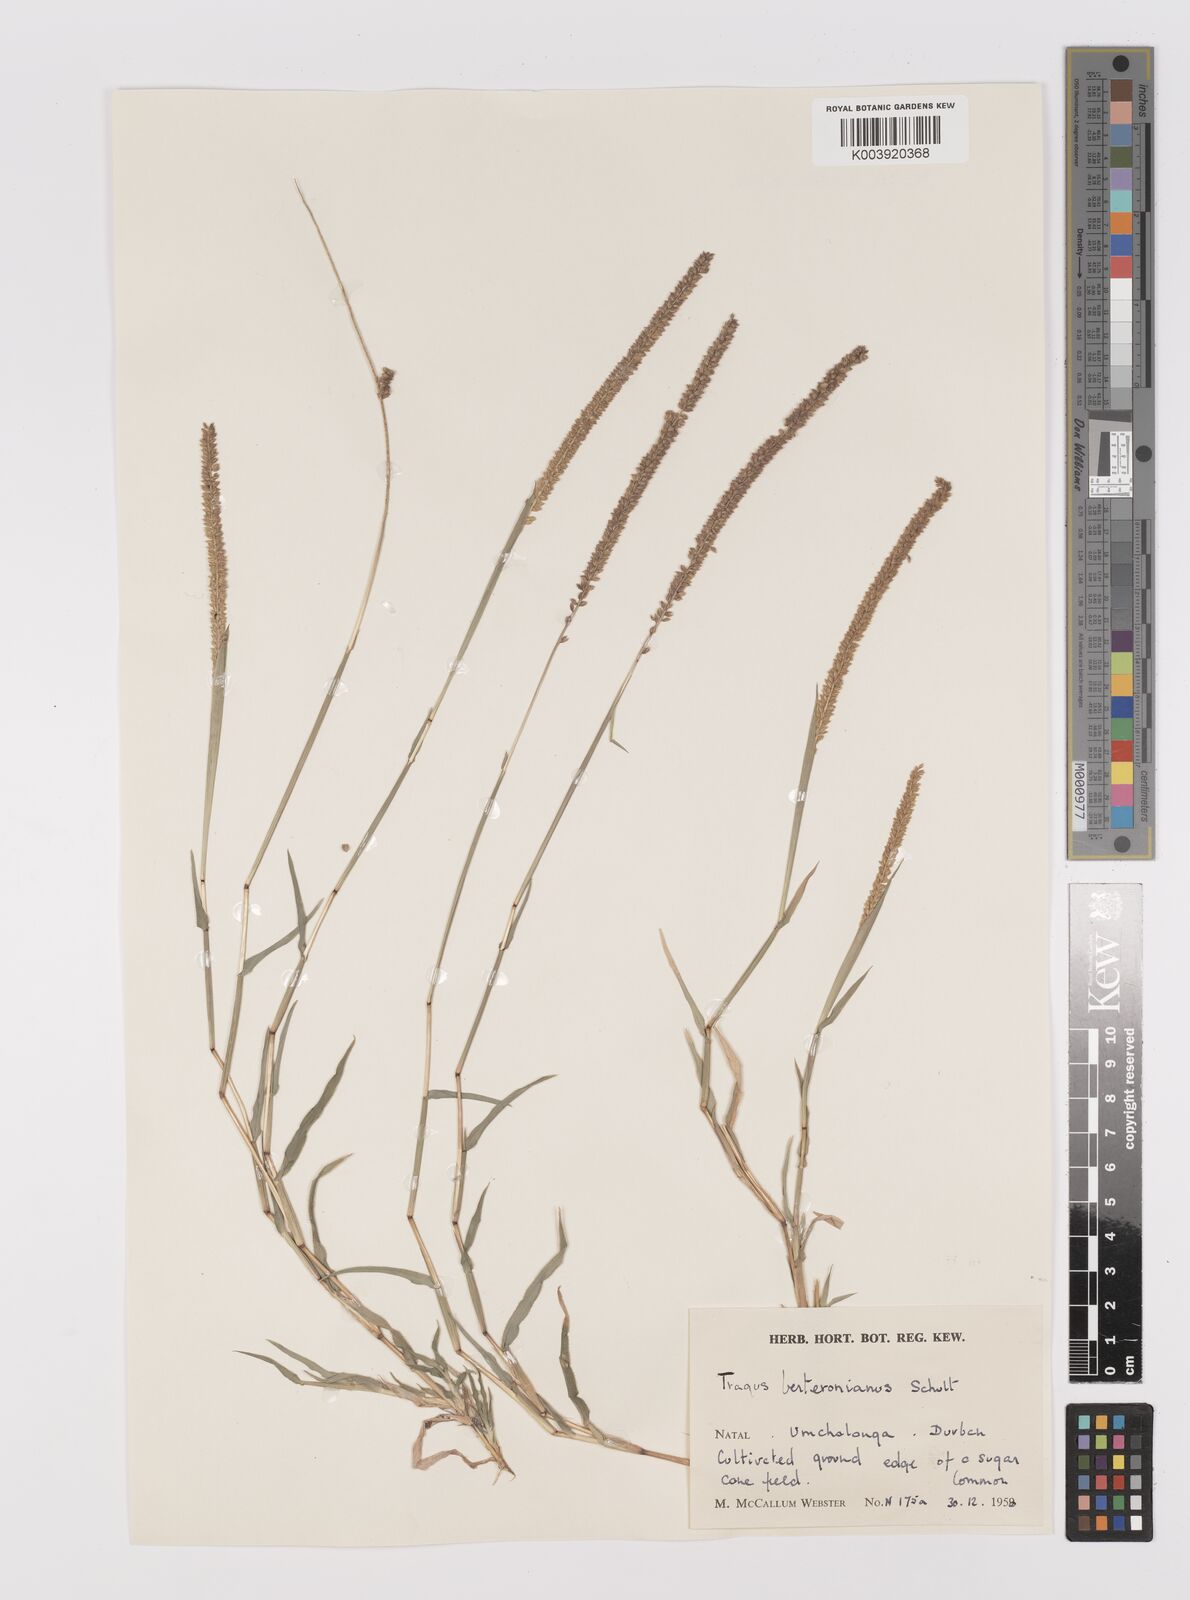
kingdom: Plantae
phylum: Tracheophyta
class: Liliopsida
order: Poales
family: Poaceae
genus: Tragus
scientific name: Tragus berteronianus
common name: African bur-grass
